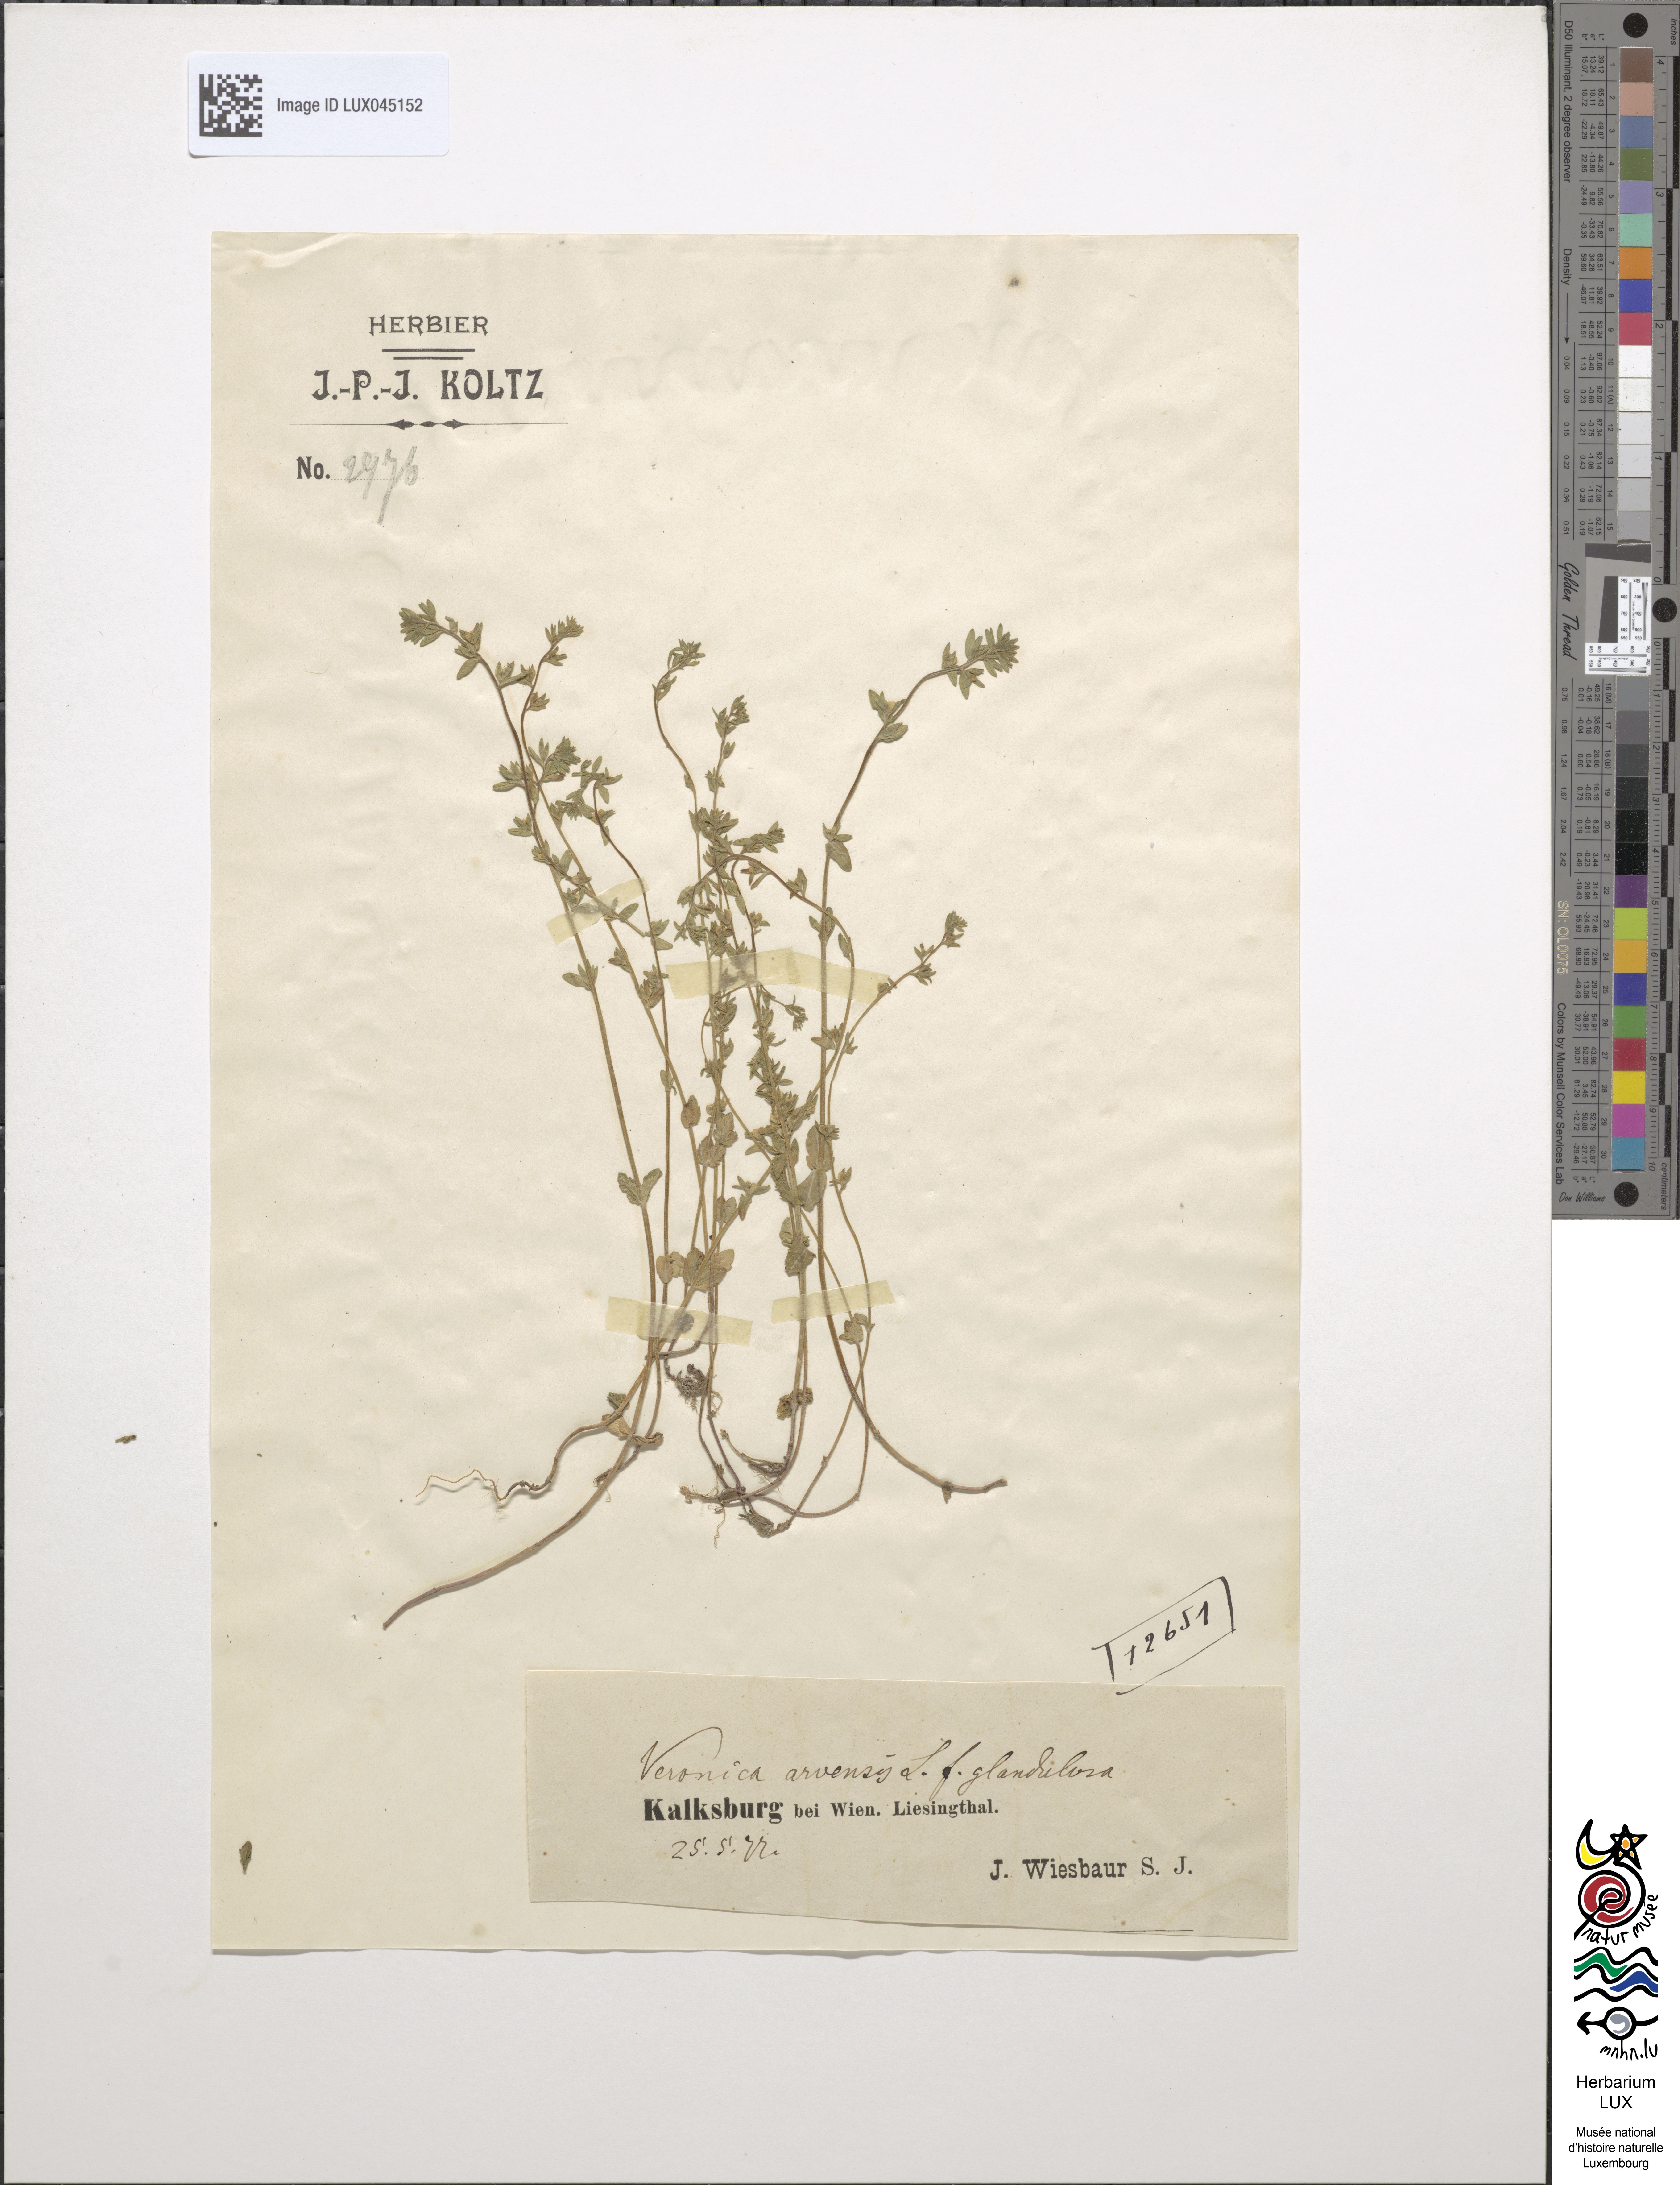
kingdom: Plantae
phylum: Tracheophyta
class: Magnoliopsida
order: Lamiales
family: Plantaginaceae
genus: Veronica
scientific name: Veronica arvensis
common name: Corn speedwell
